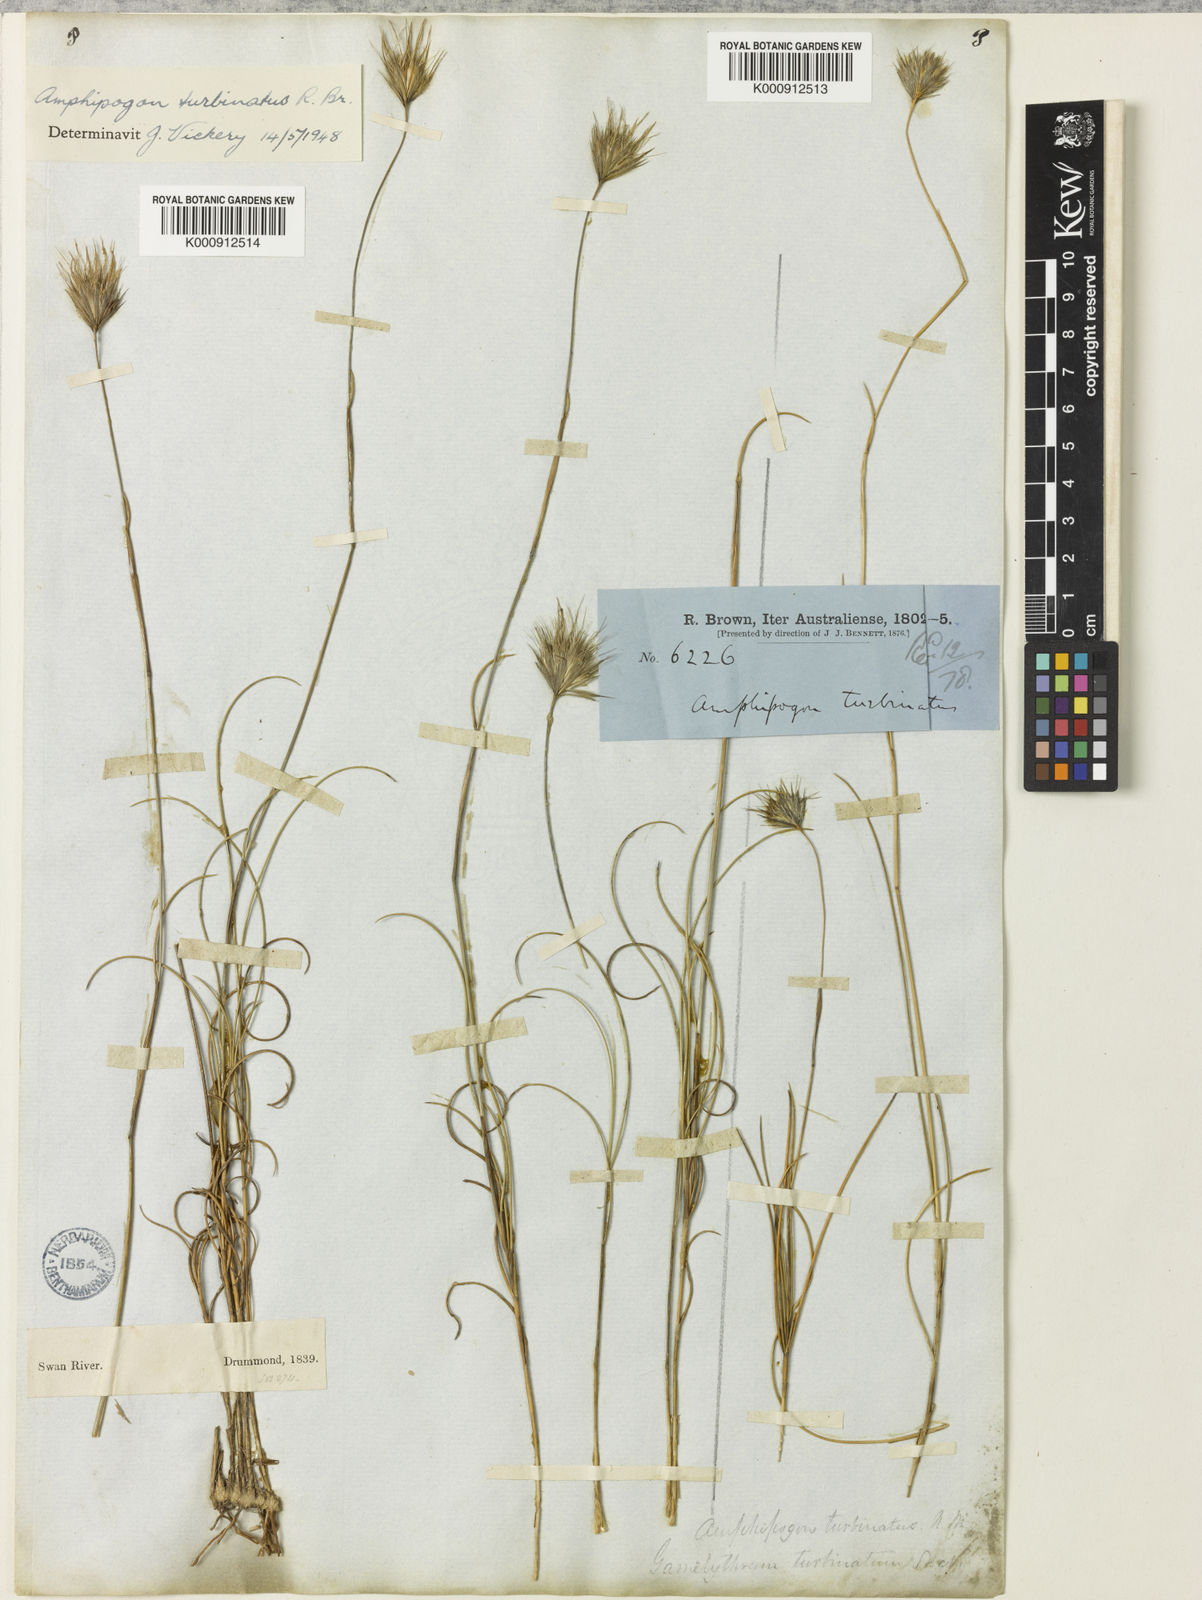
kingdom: Plantae
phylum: Tracheophyta
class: Liliopsida
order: Poales
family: Poaceae
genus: Amphipogon
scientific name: Amphipogon turbinatus
